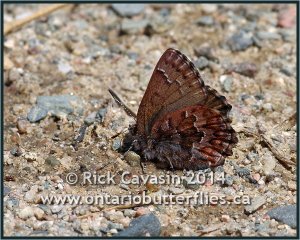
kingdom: Animalia
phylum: Arthropoda
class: Insecta
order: Lepidoptera
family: Lycaenidae
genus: Incisalia
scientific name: Incisalia niphon
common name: Eastern Pine Elfin
